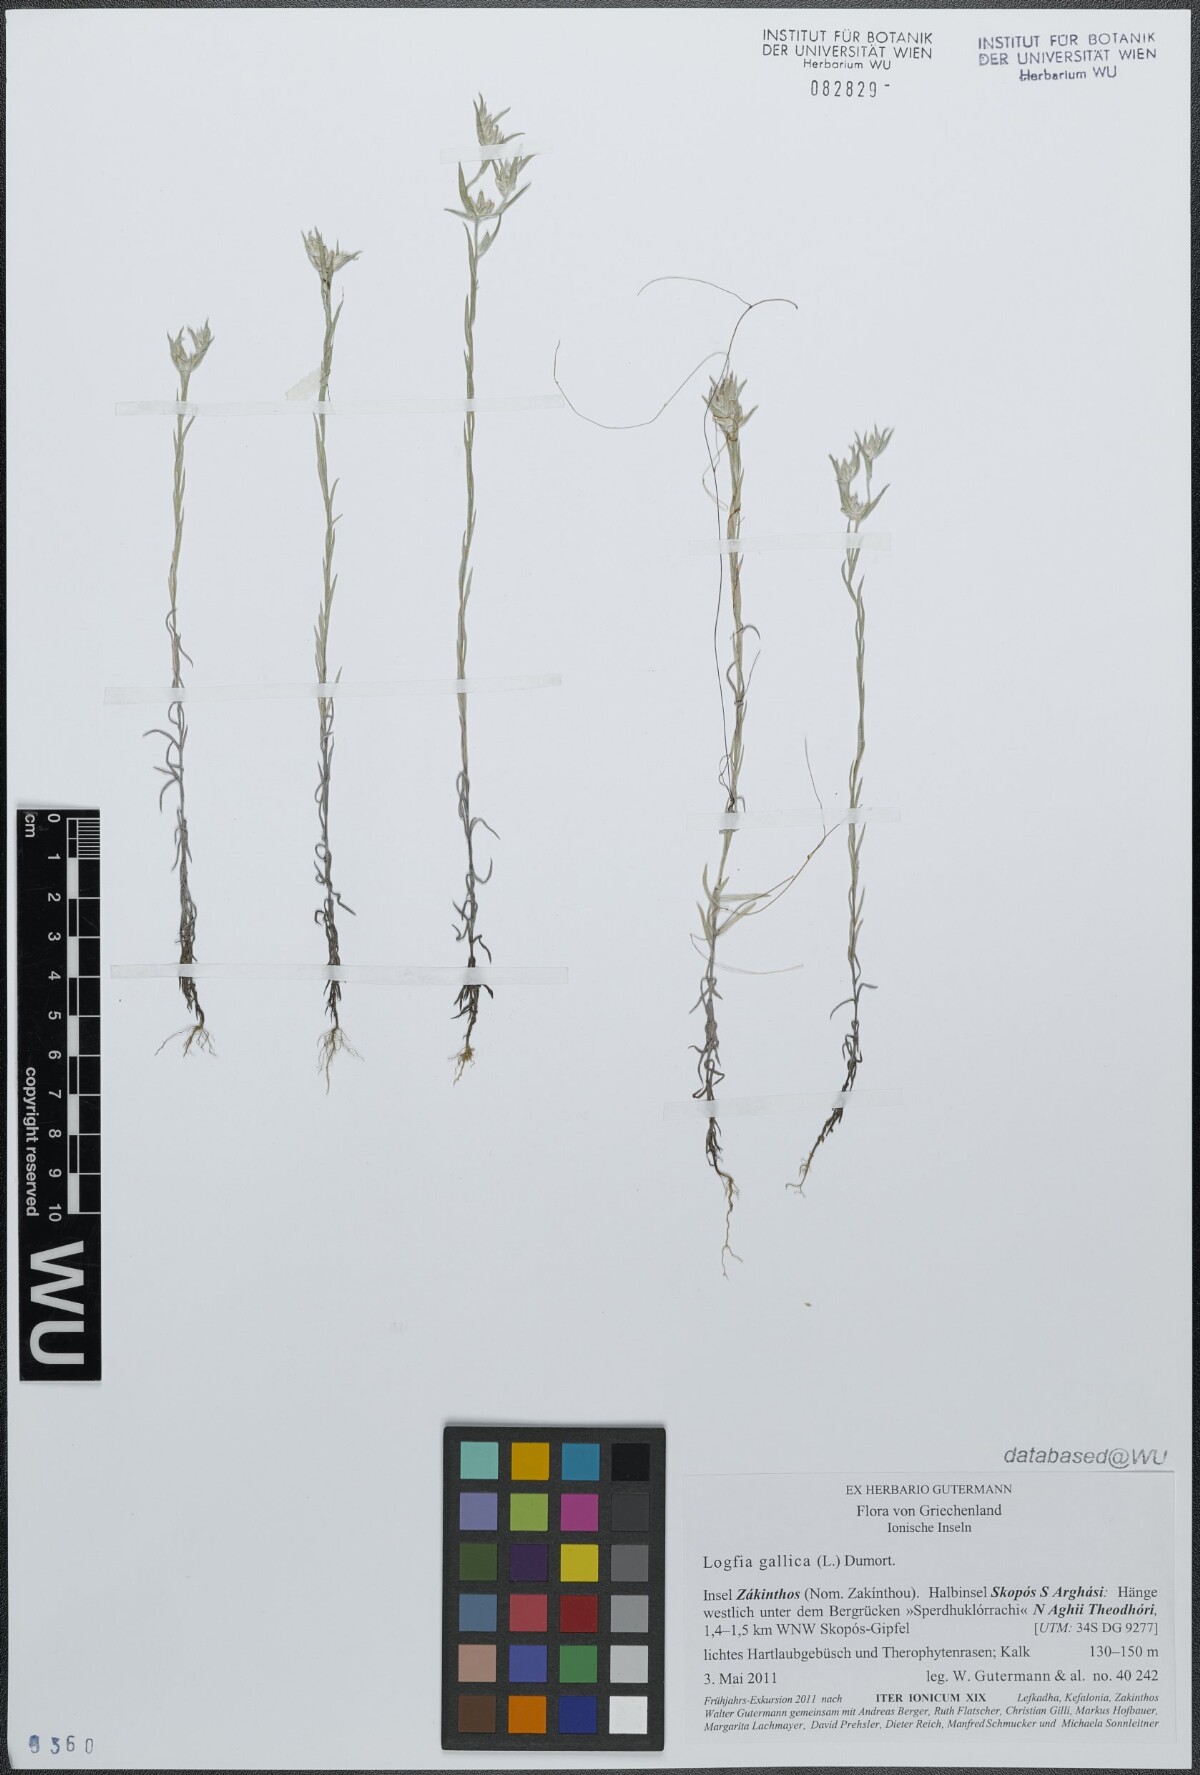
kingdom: Plantae
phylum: Tracheophyta
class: Magnoliopsida
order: Asterales
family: Asteraceae
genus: Logfia
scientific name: Logfia gallica
